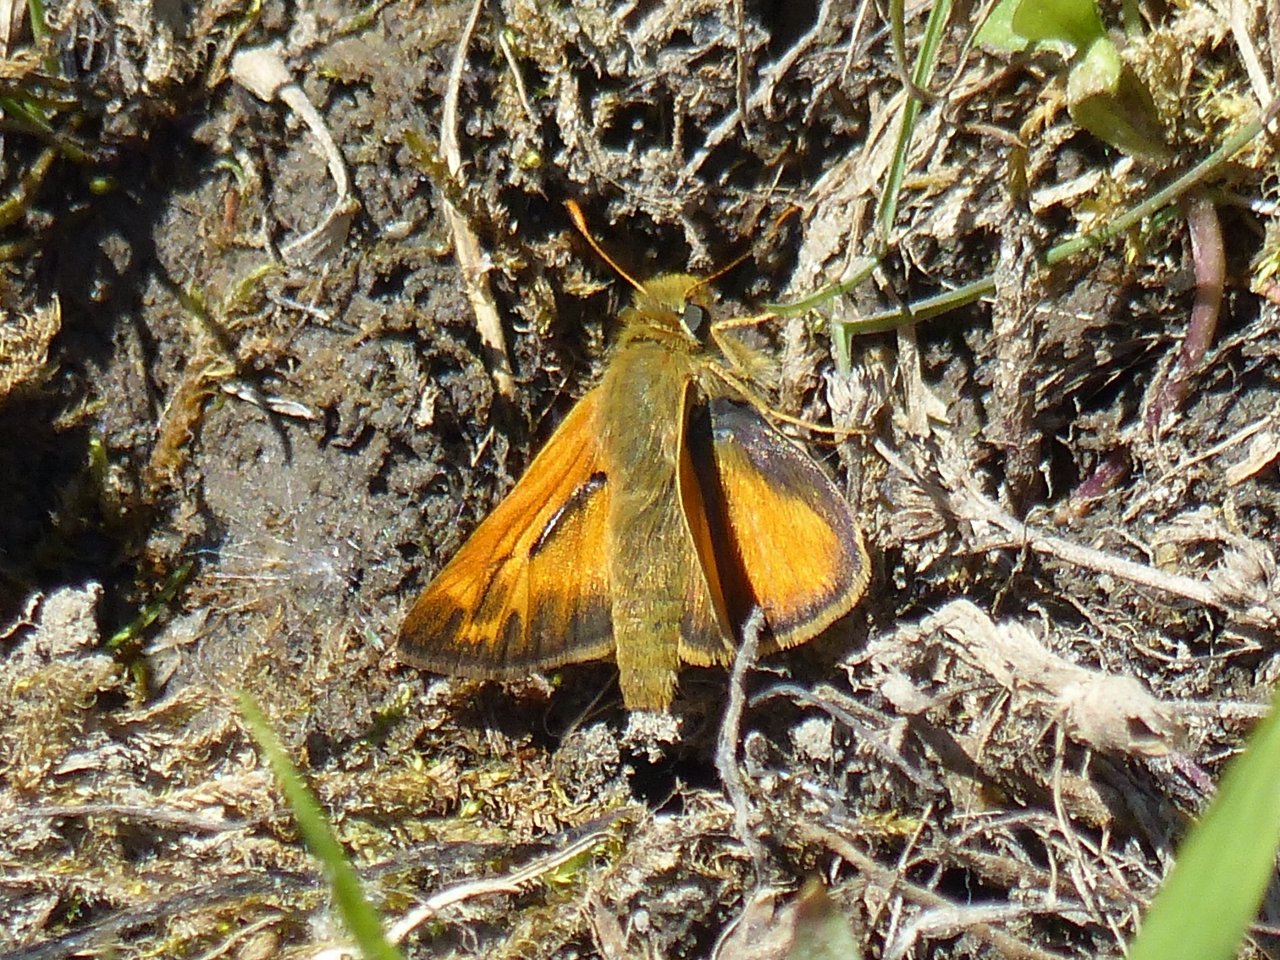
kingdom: Animalia
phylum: Arthropoda
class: Insecta
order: Lepidoptera
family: Hesperiidae
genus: Hesperia
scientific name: Hesperia sassacus
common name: Sassacus Skipper
